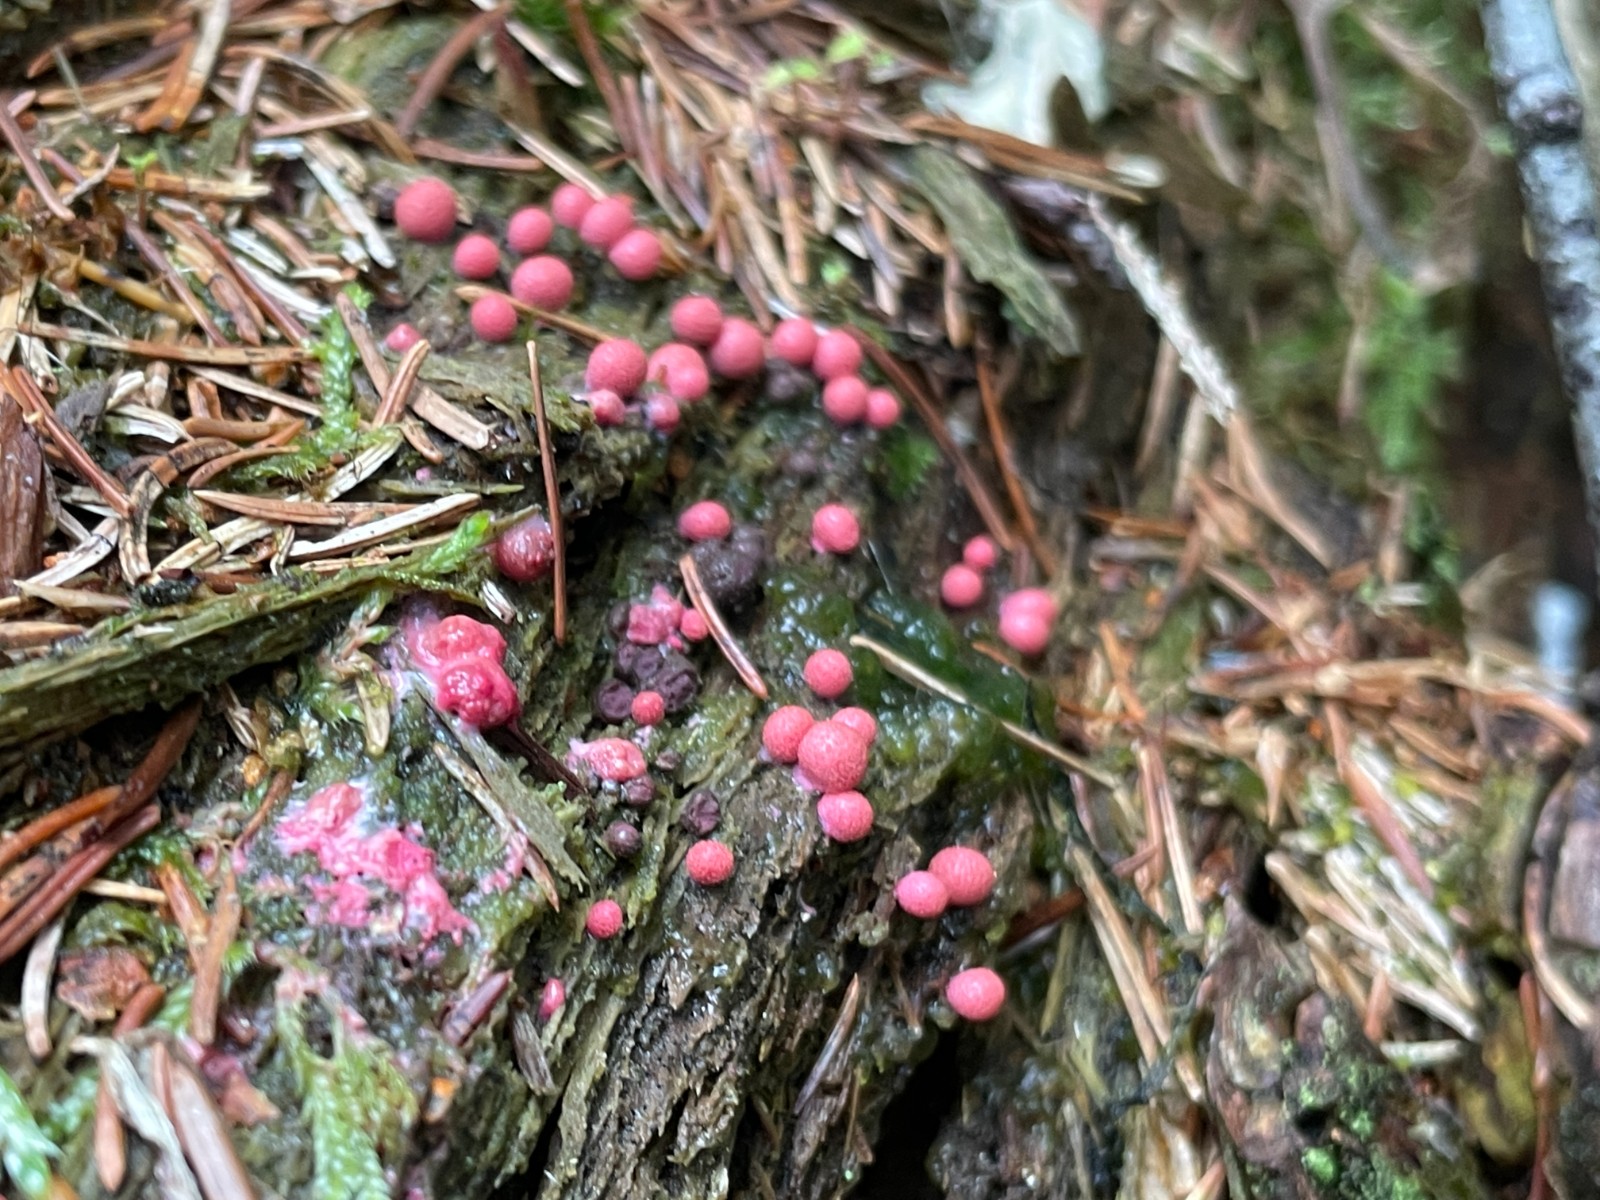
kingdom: Protozoa
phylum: Mycetozoa
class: Myxomycetes
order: Cribrariales
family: Tubiferaceae
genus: Lycogala
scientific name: Lycogala
